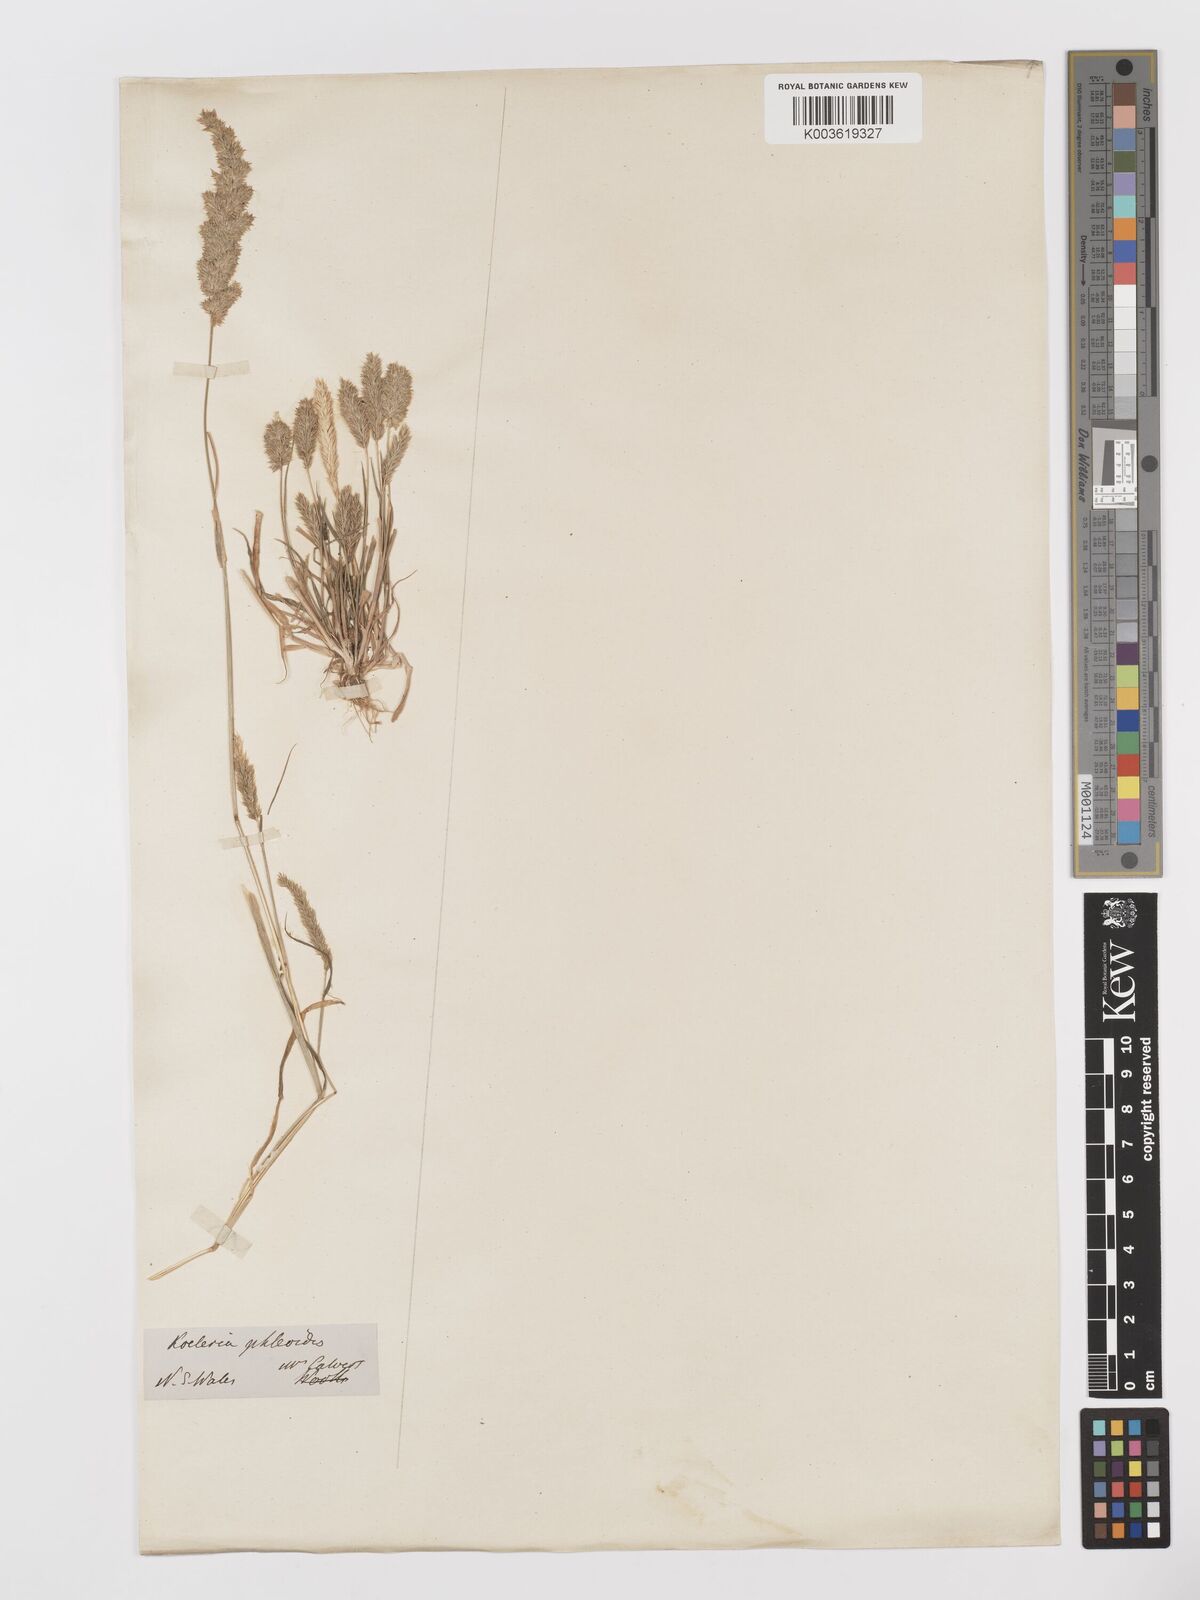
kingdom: Plantae
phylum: Tracheophyta
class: Liliopsida
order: Poales
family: Poaceae
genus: Rostraria
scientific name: Rostraria cristata
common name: Mediterranean hair-grass
